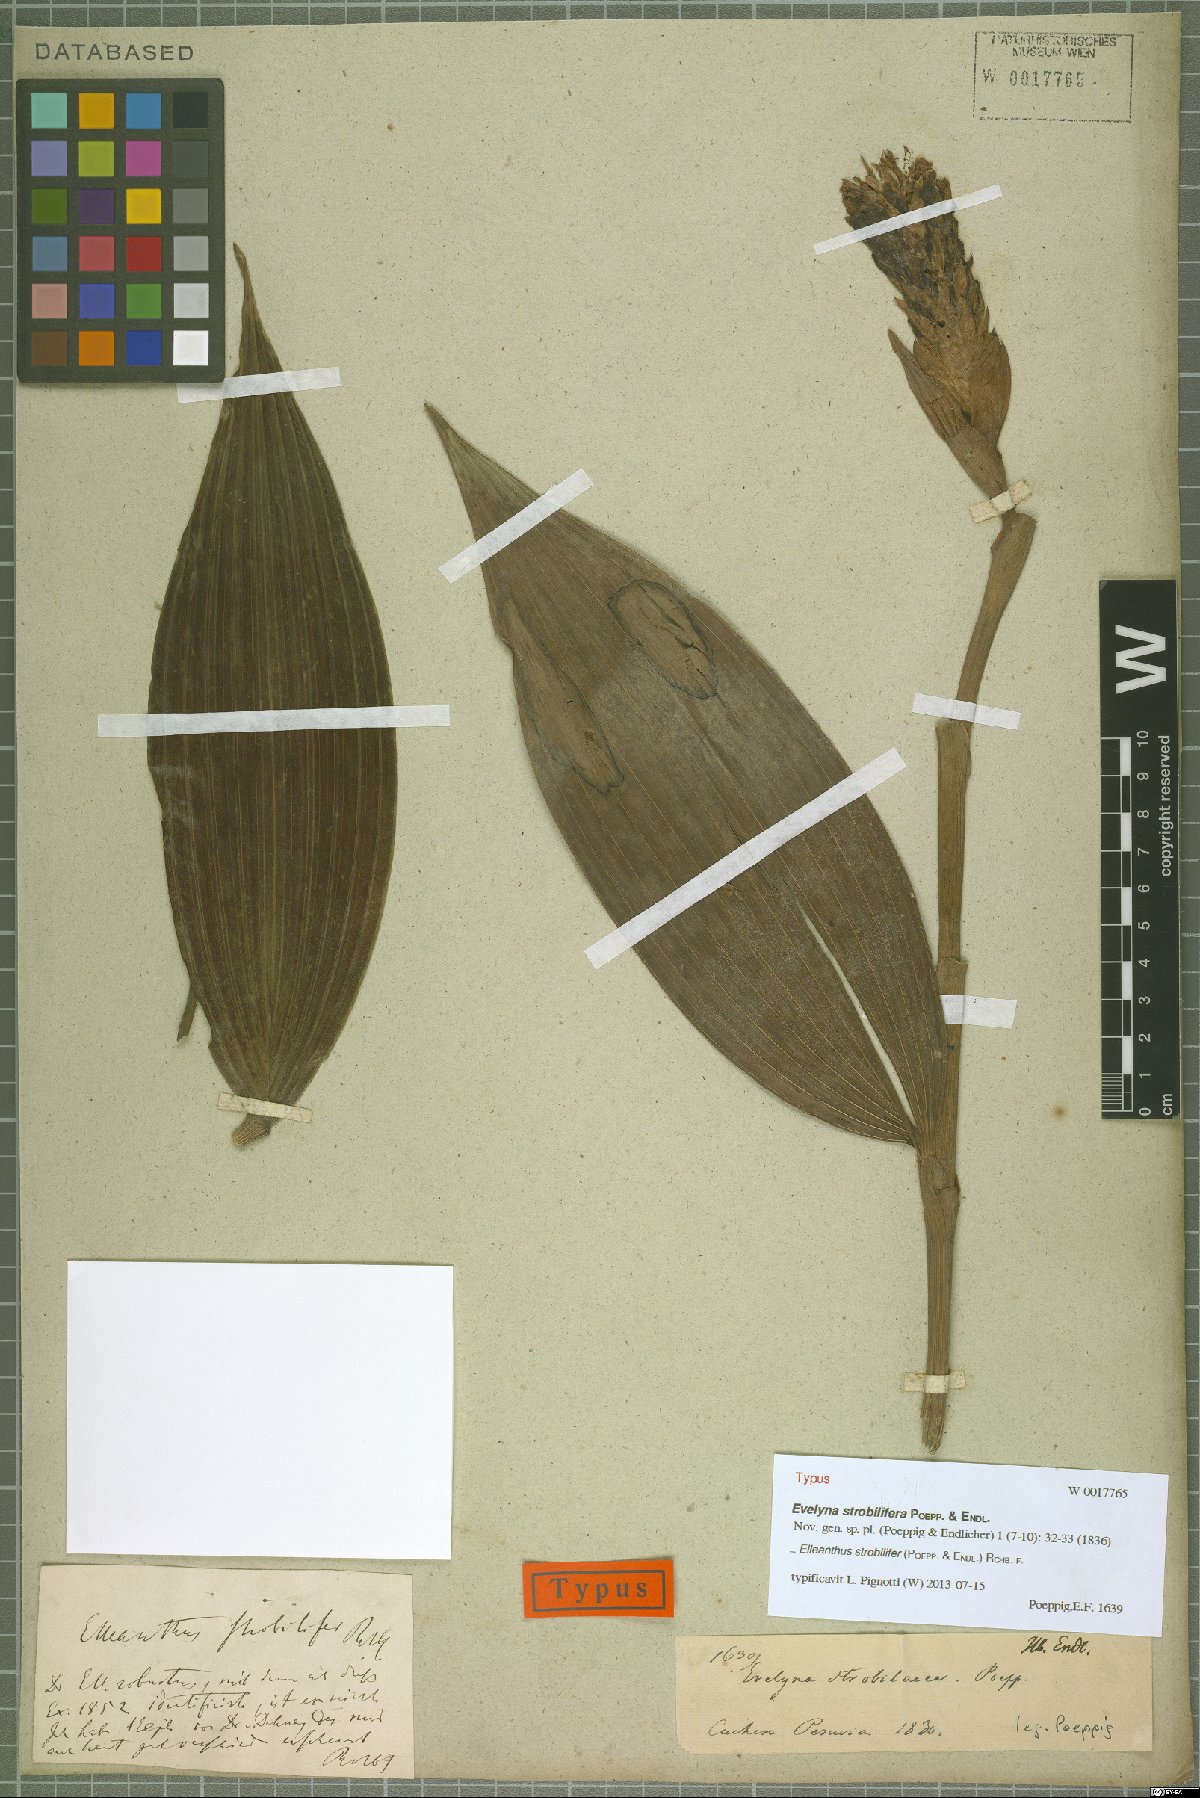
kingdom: Plantae
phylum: Tracheophyta
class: Liliopsida
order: Asparagales
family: Orchidaceae
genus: Elleanthus
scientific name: Elleanthus strobilifer
